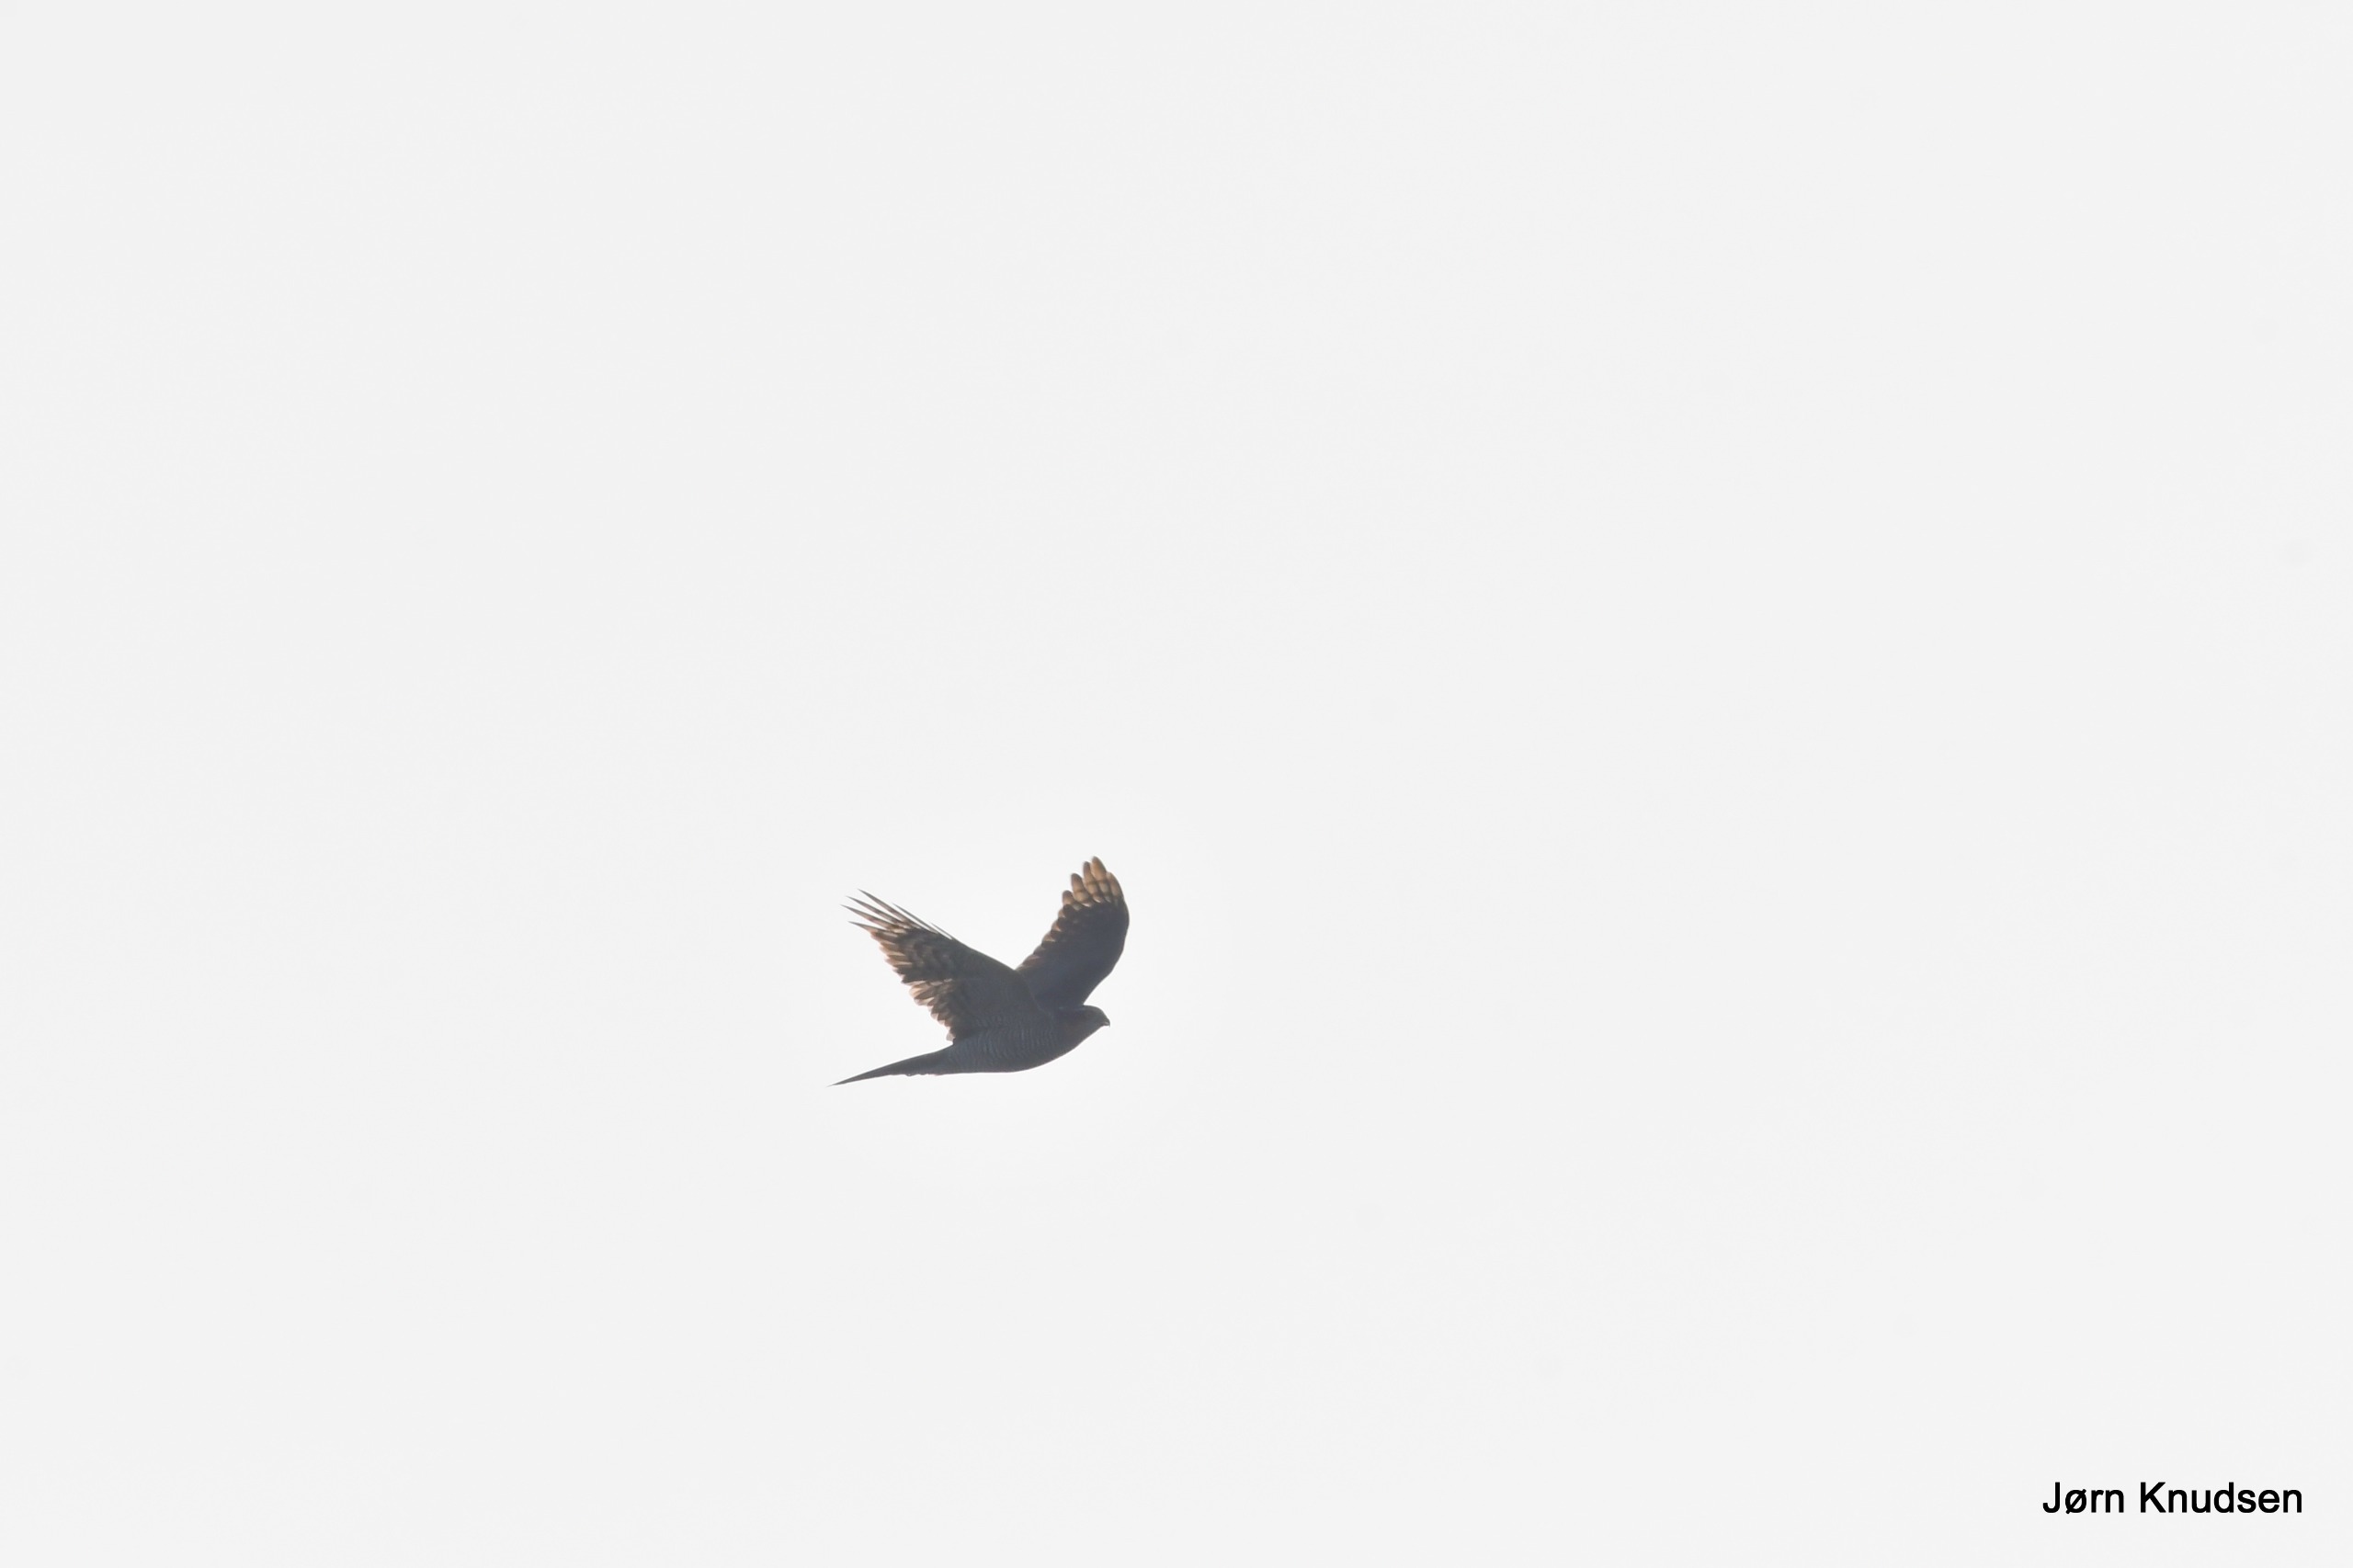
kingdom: Animalia
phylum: Chordata
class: Aves
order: Accipitriformes
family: Accipitridae
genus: Accipiter
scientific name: Accipiter nisus
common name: Spurvehøg
